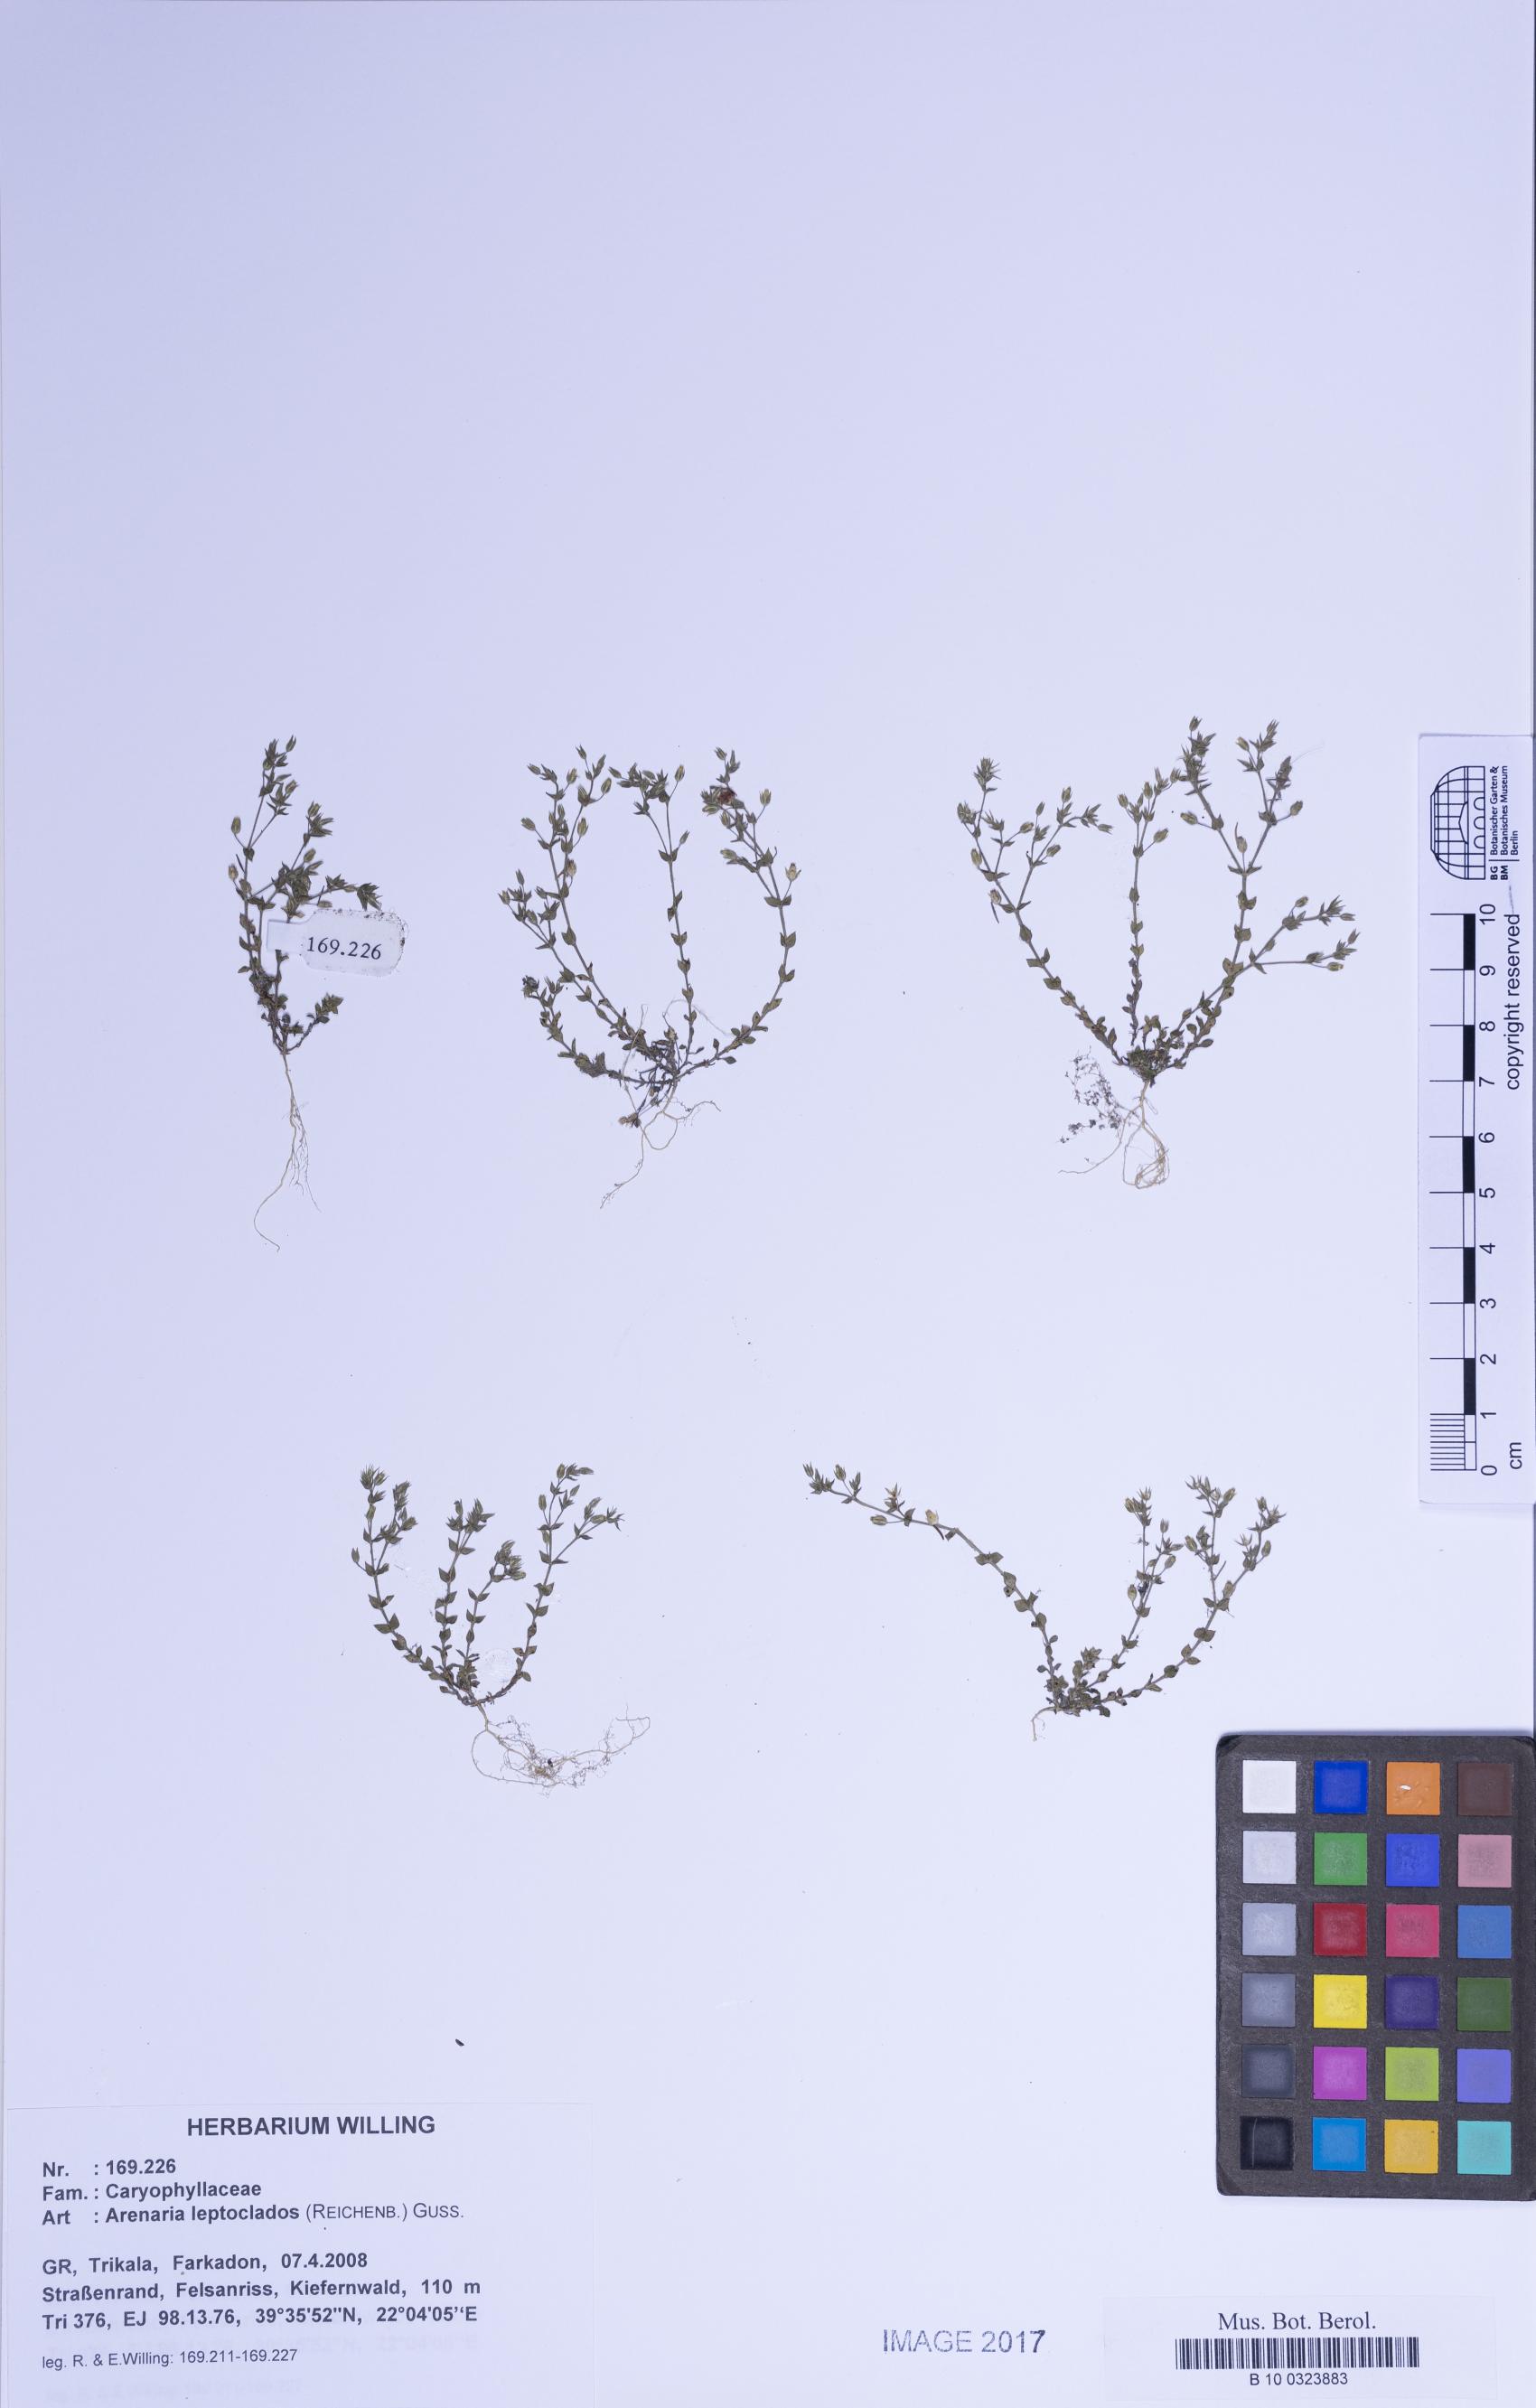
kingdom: Plantae
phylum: Tracheophyta
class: Magnoliopsida
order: Caryophyllales
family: Caryophyllaceae
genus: Arenaria
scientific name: Arenaria leptoclados
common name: Thyme-leaved sandwort
